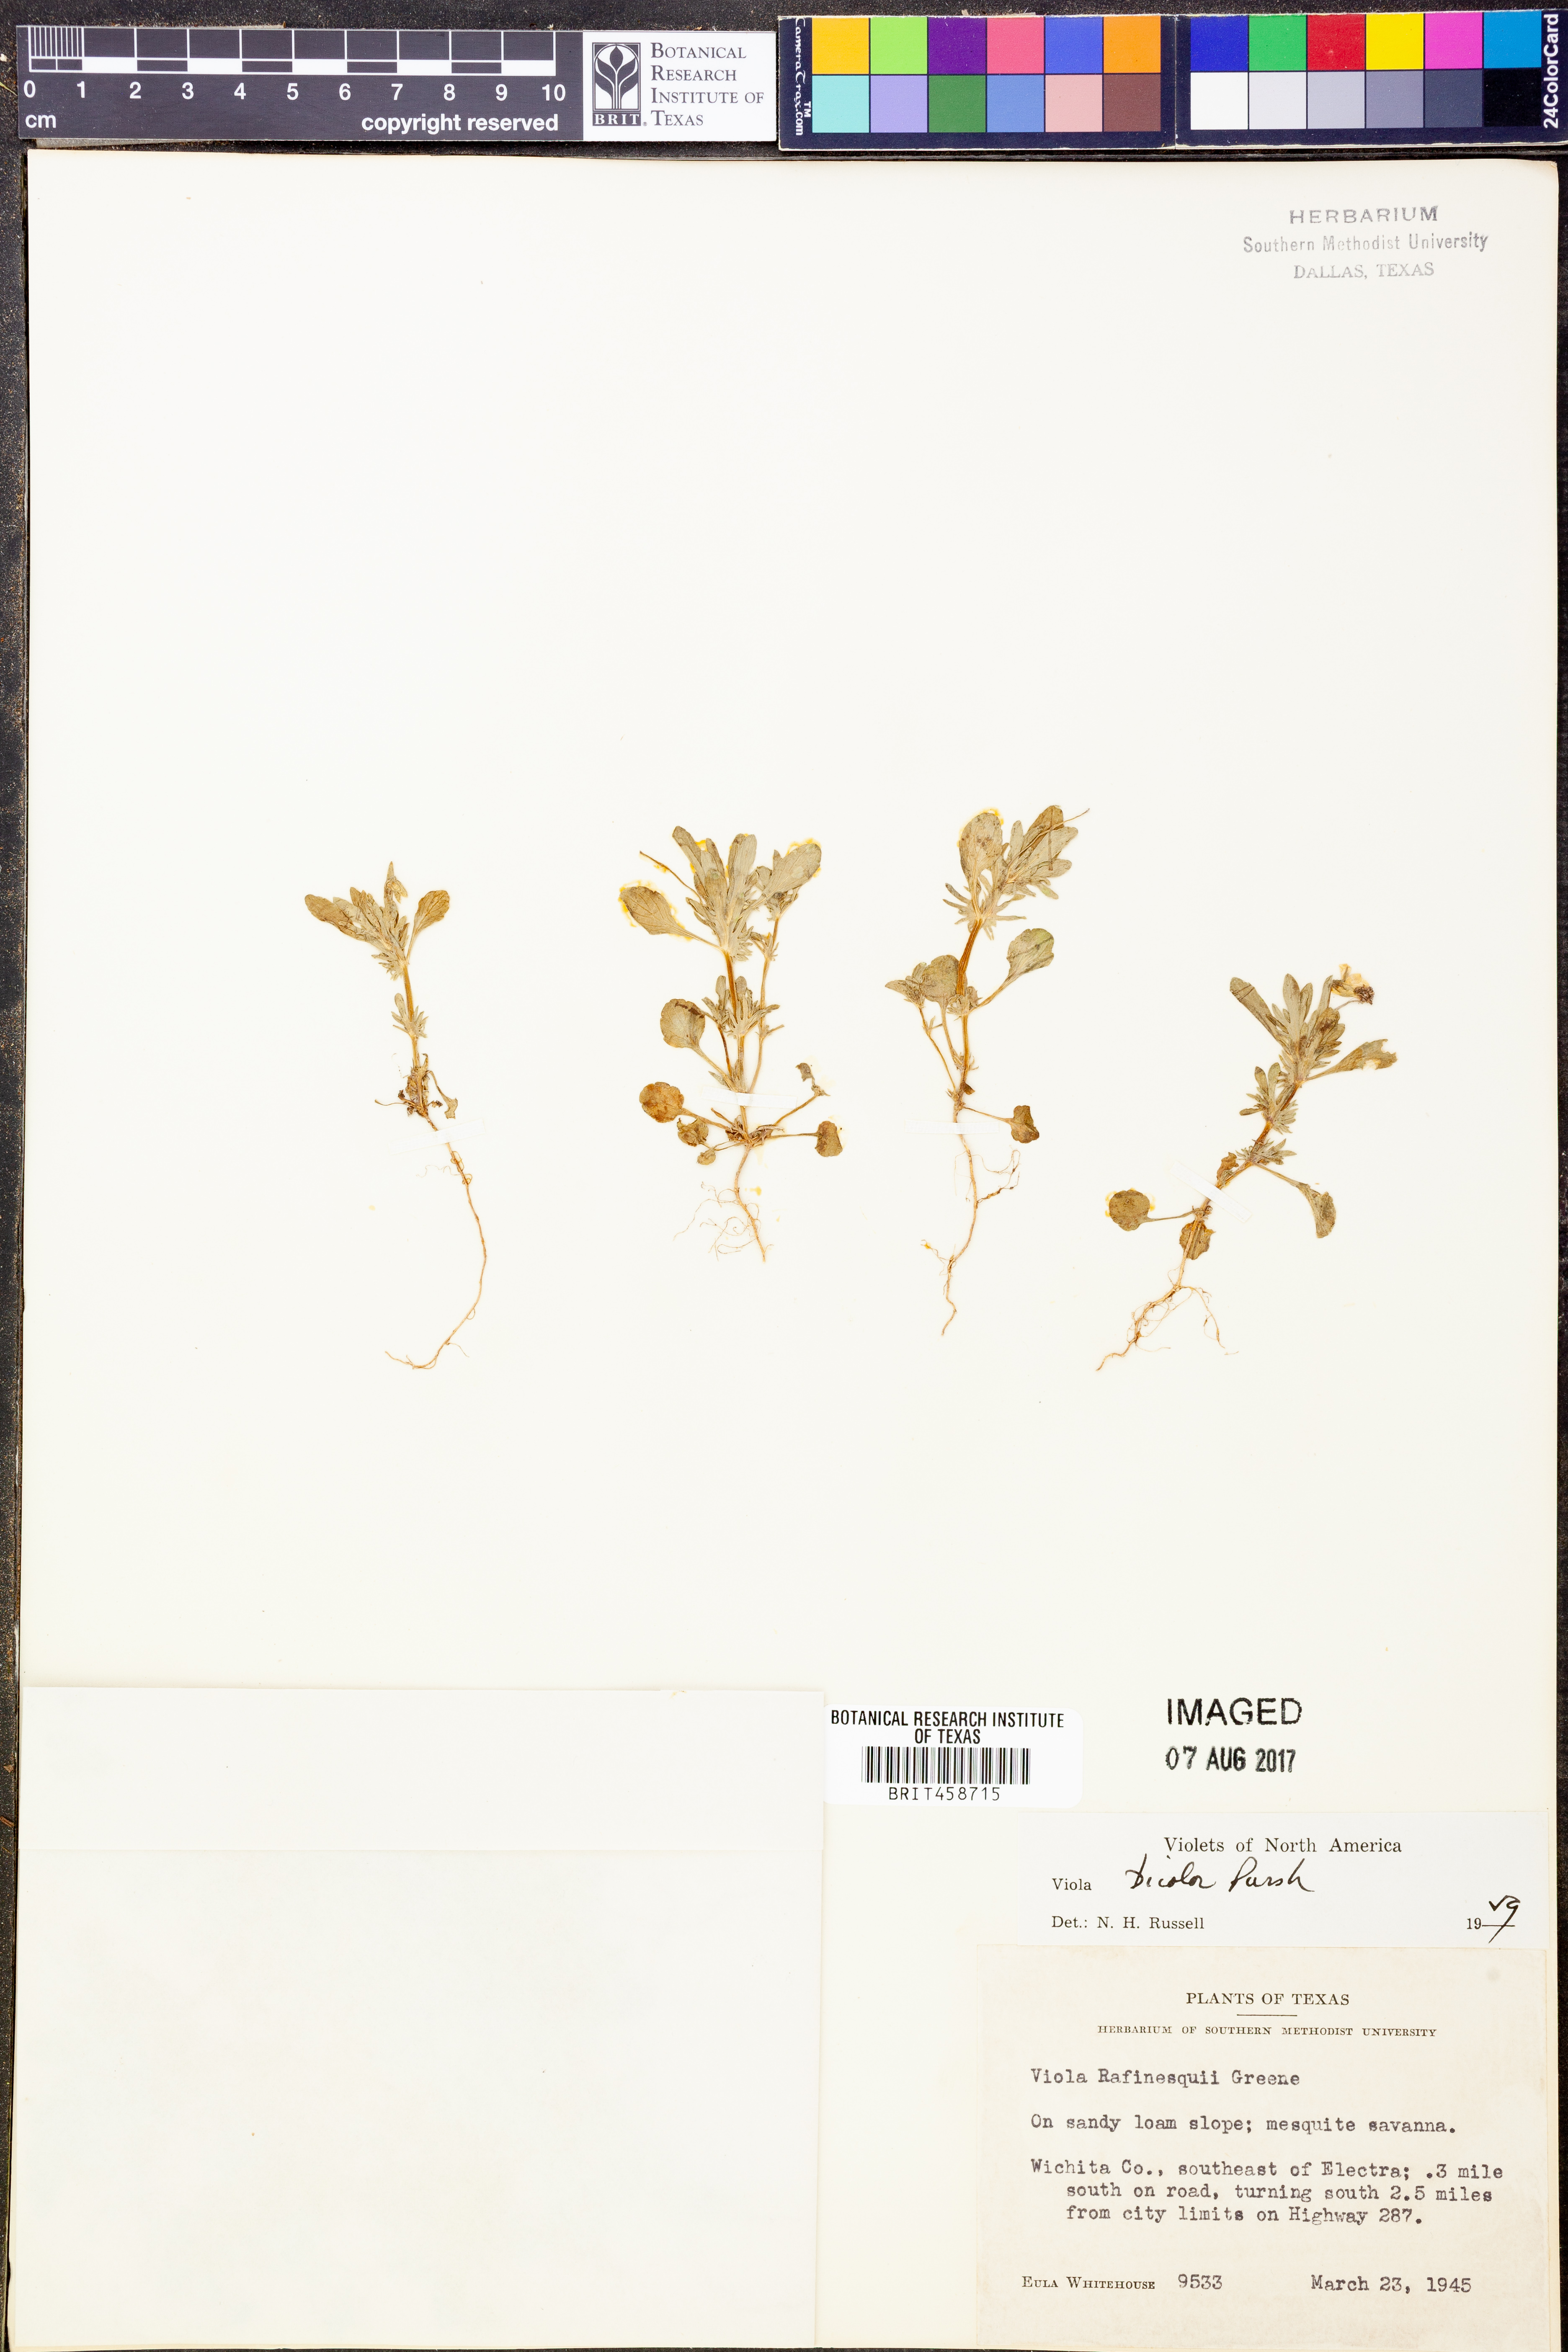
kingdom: Plantae
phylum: Tracheophyta
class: Magnoliopsida
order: Malpighiales
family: Violaceae
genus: Viola
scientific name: Viola rafinesquei
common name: American field pansy
